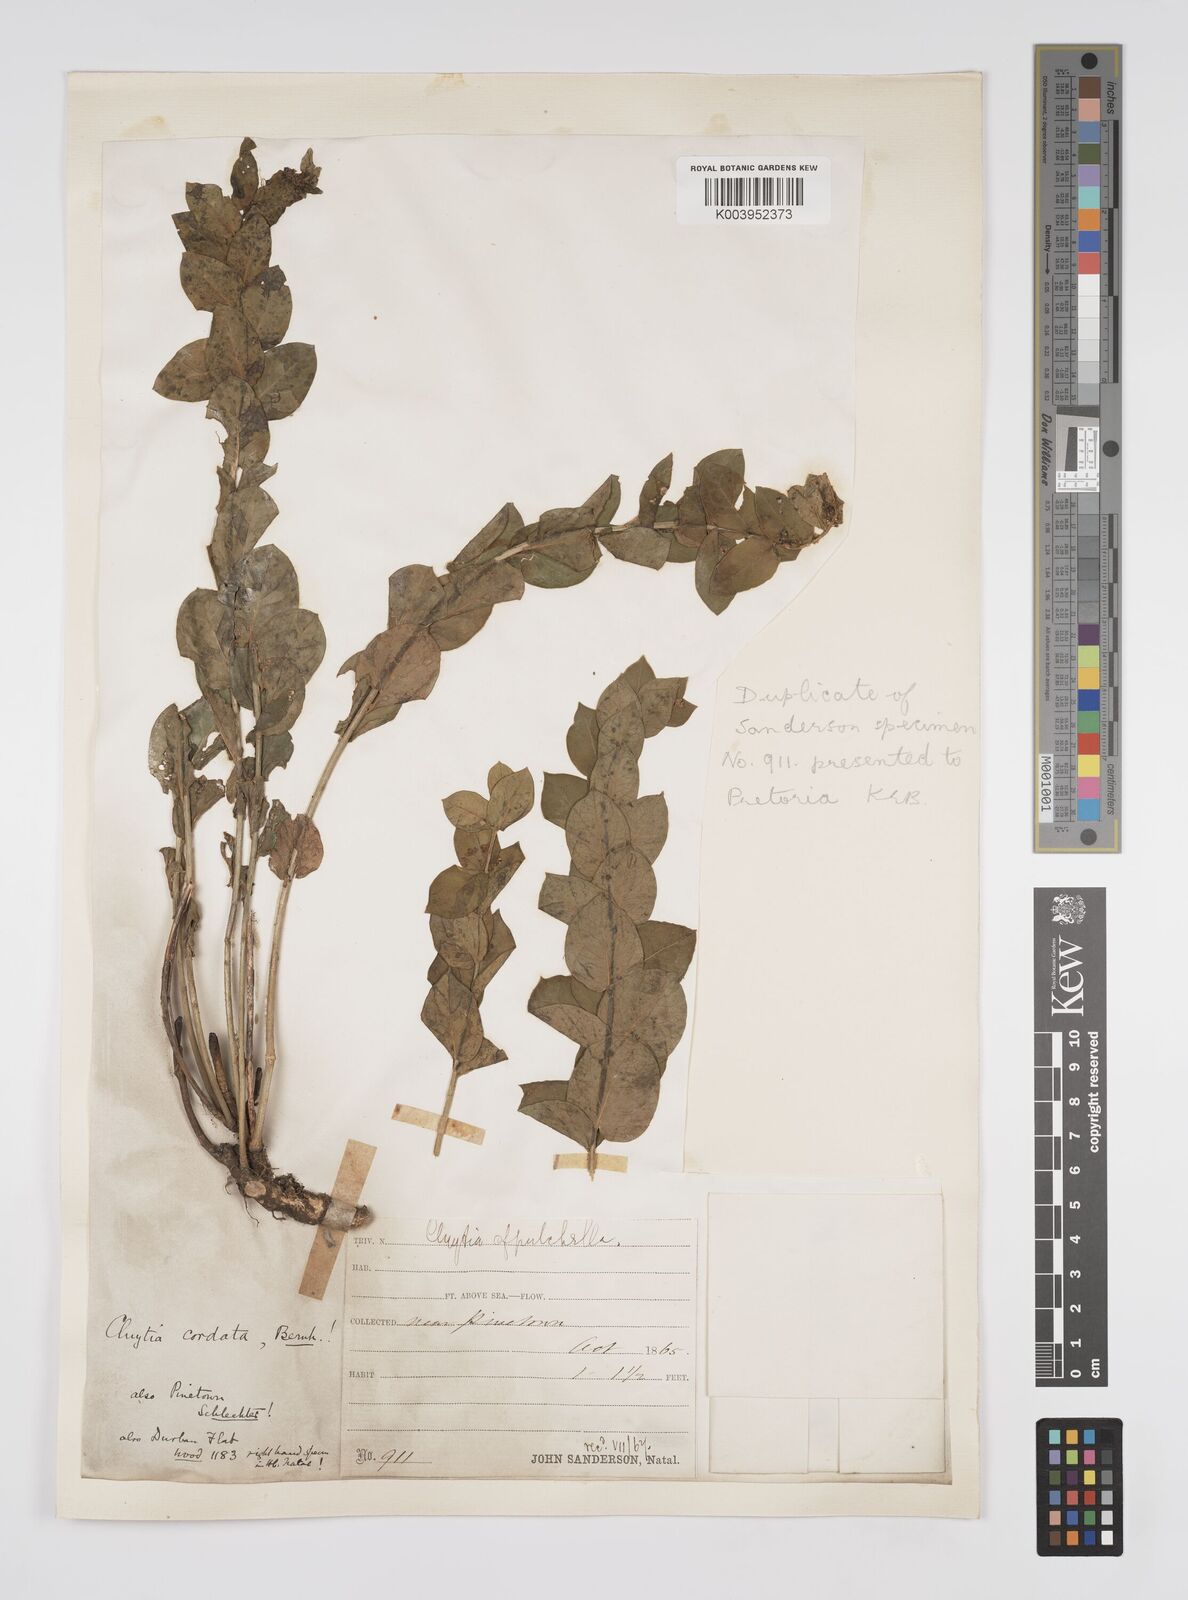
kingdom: Plantae
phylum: Tracheophyta
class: Magnoliopsida
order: Malpighiales
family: Peraceae
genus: Clutia
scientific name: Clutia cordata
